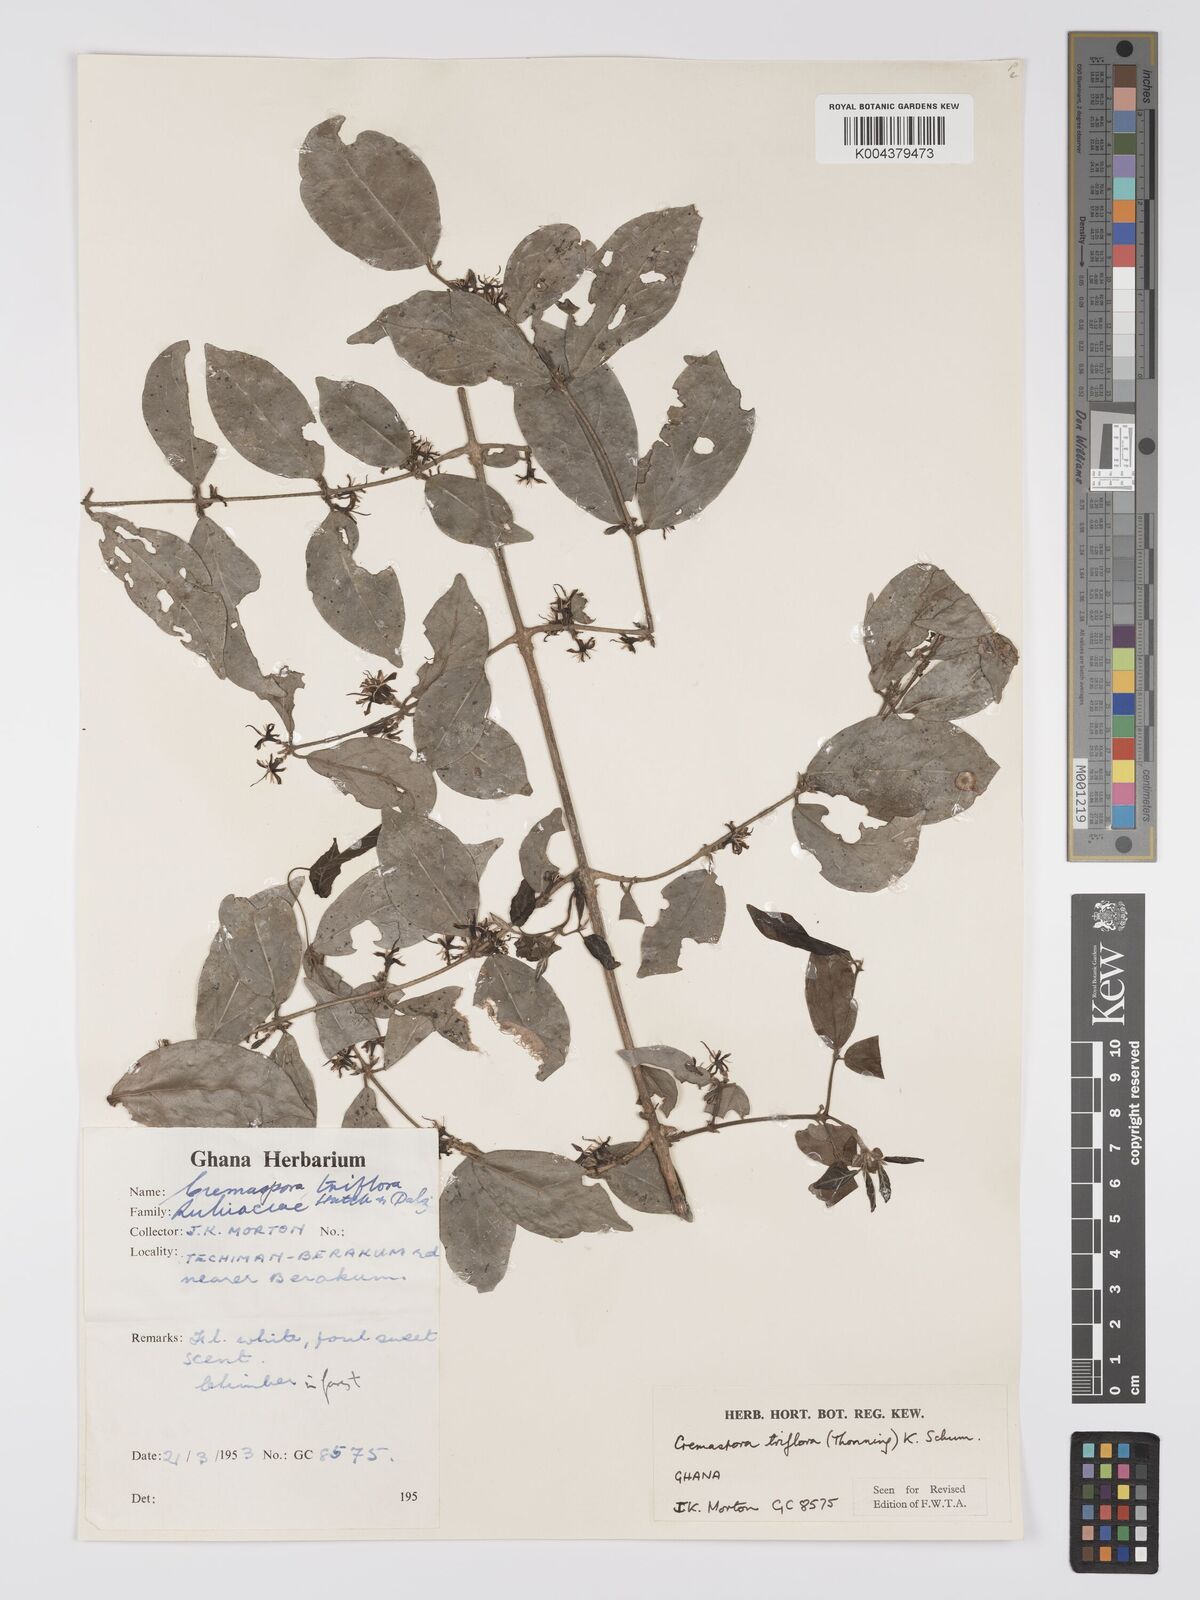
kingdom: Plantae
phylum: Tracheophyta
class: Magnoliopsida
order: Gentianales
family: Rubiaceae
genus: Cremaspora
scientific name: Cremaspora triflora
